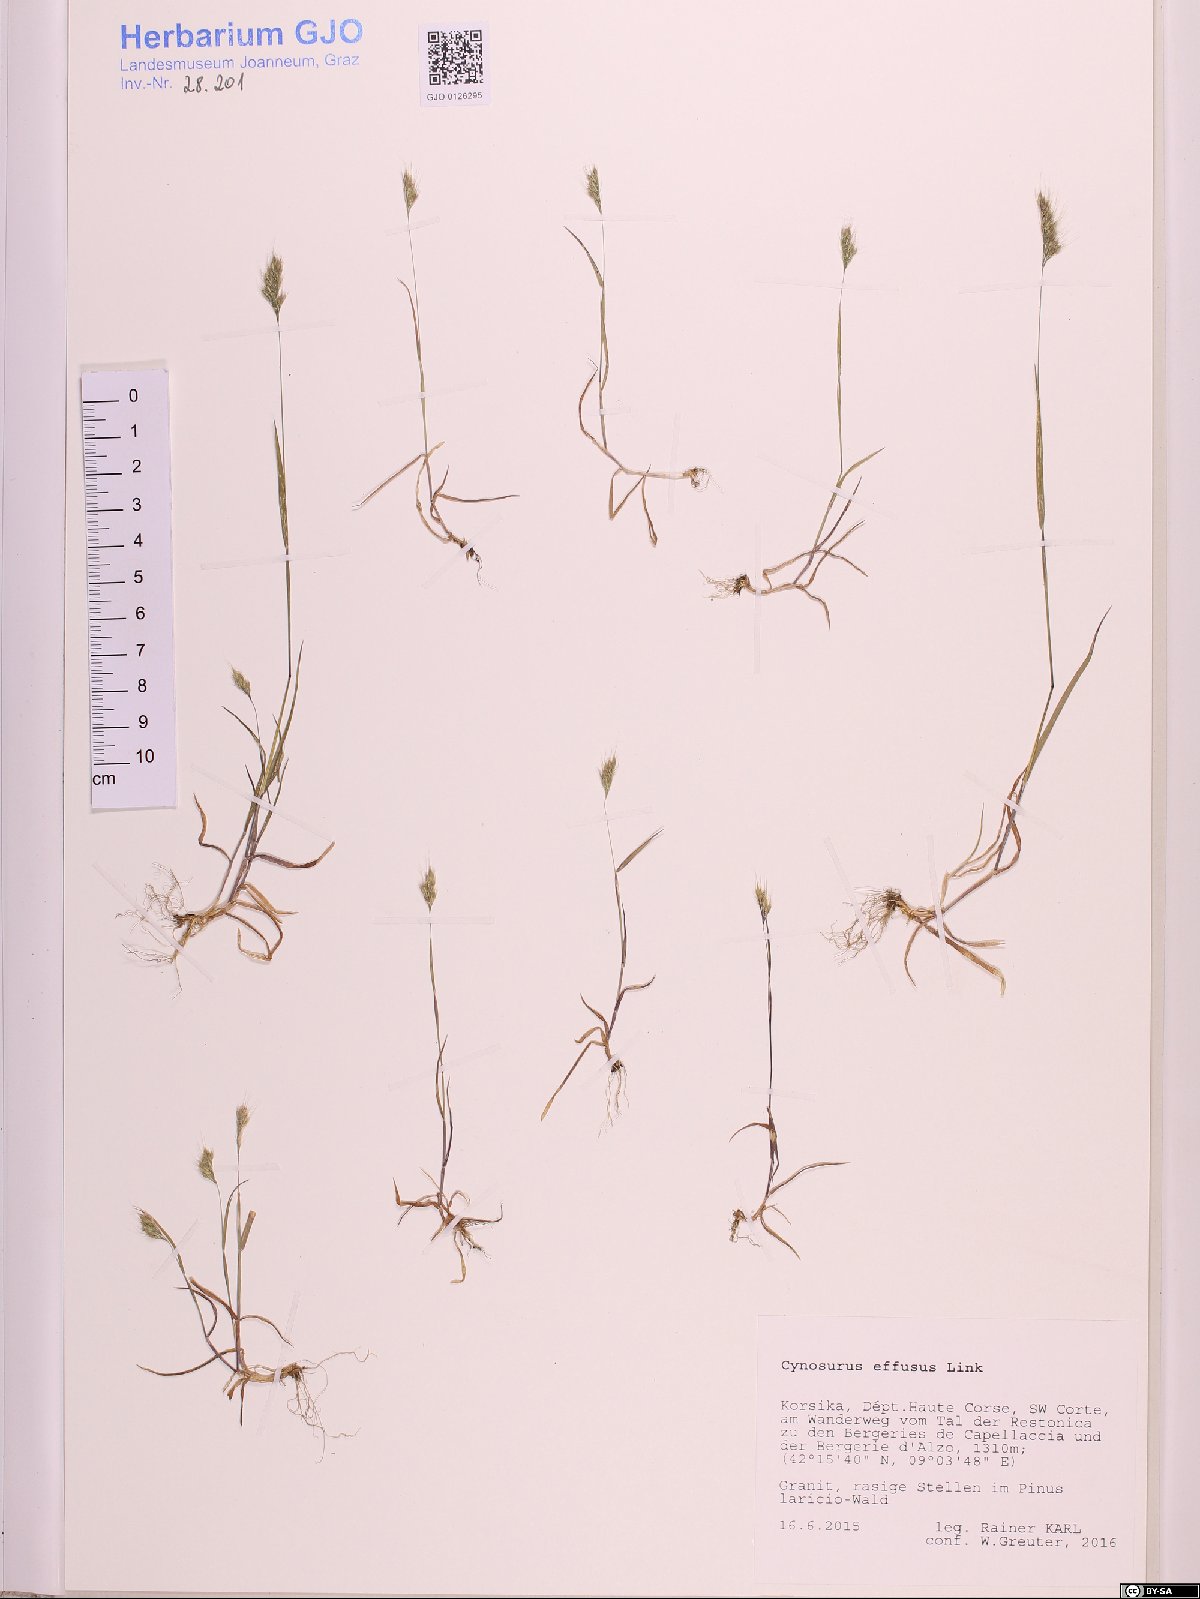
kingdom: Plantae
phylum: Tracheophyta
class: Liliopsida
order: Poales
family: Poaceae
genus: Cynosurus
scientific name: Cynosurus effusus
